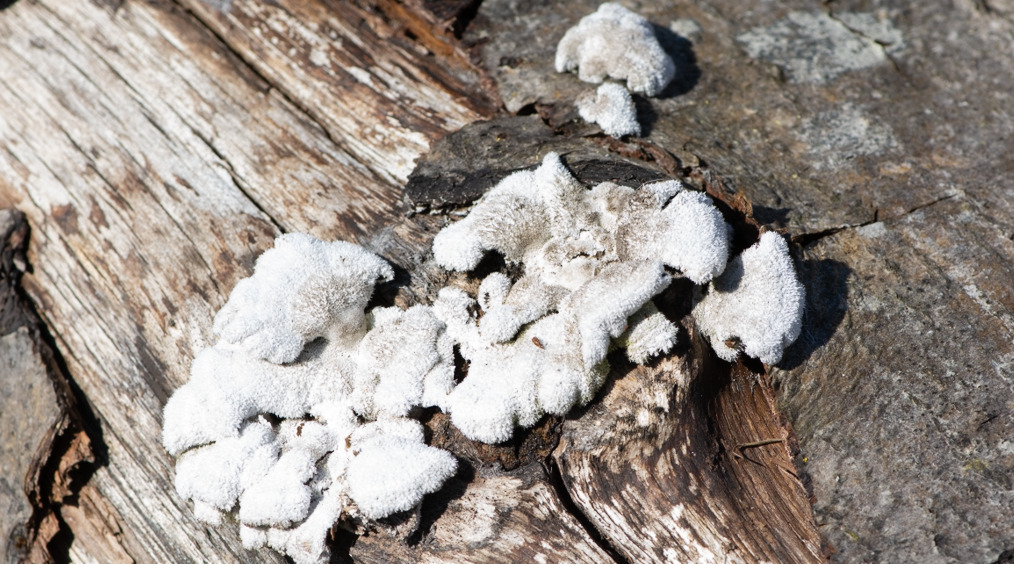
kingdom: Fungi
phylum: Basidiomycota
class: Agaricomycetes
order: Agaricales
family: Schizophyllaceae
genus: Schizophyllum
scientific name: Schizophyllum commune
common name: Kløvblad
